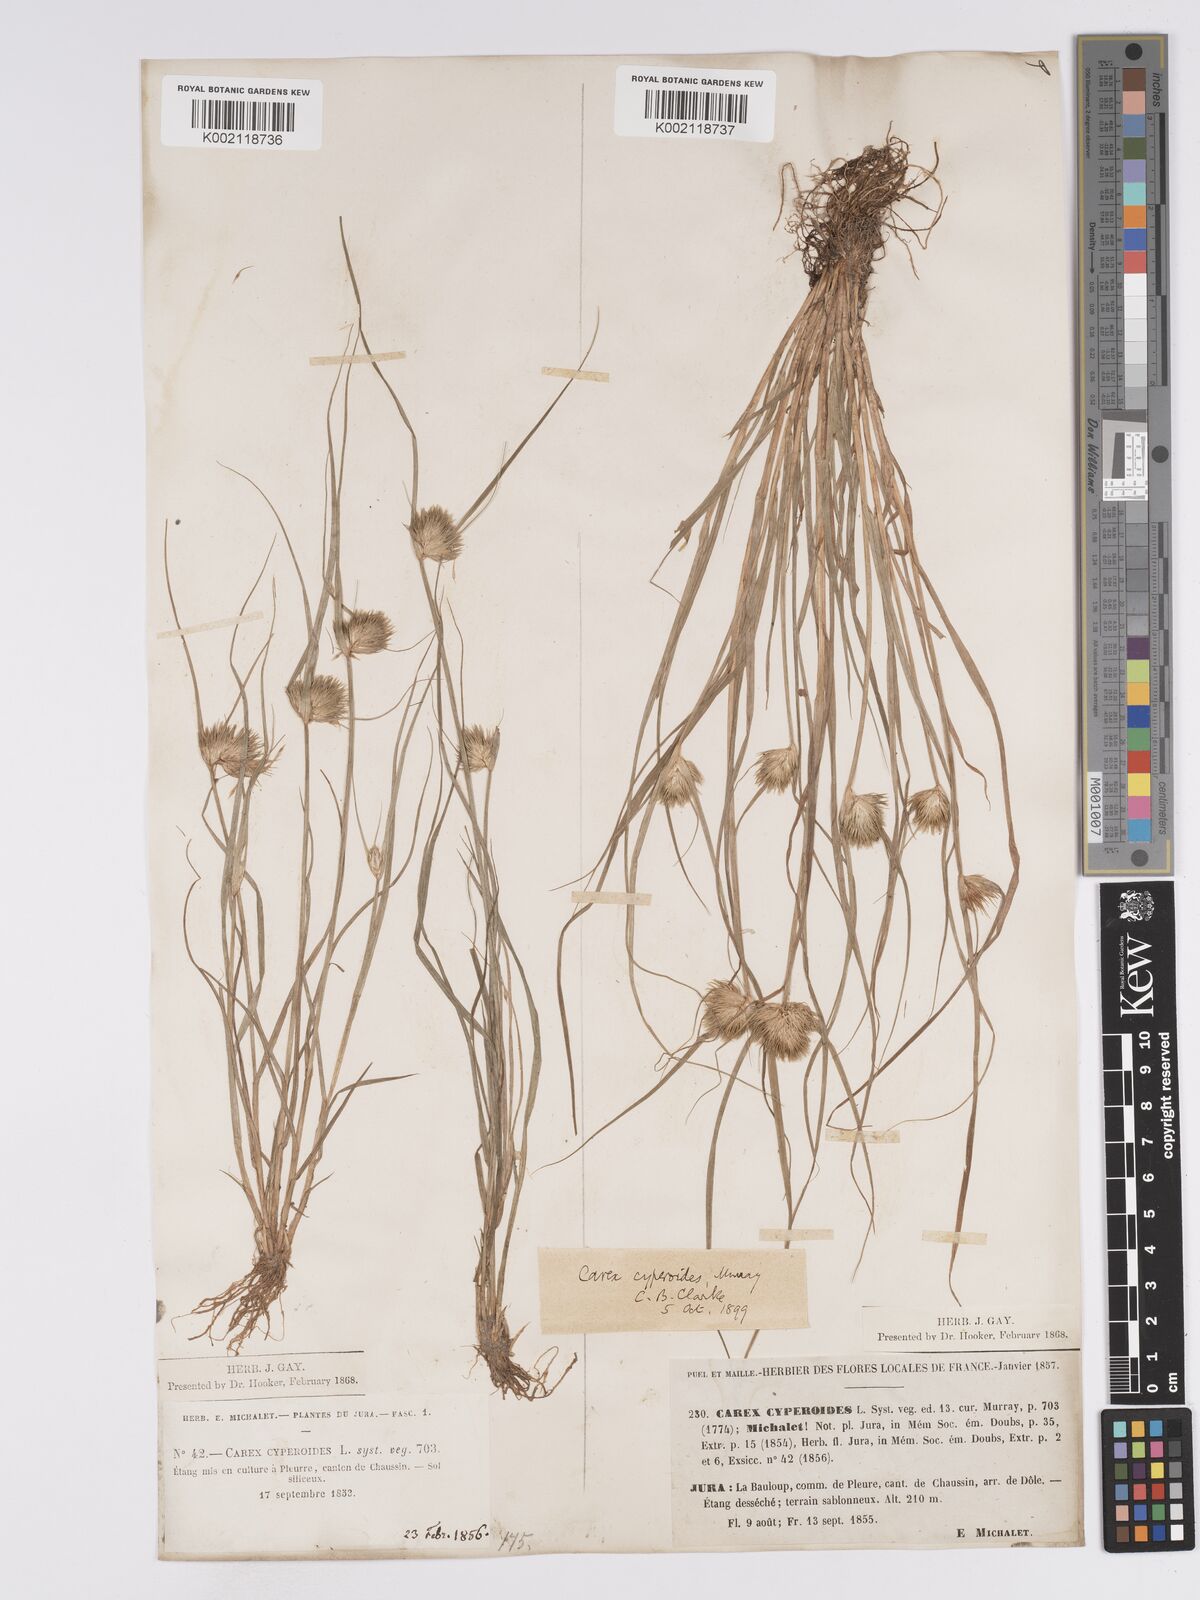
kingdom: Plantae
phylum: Tracheophyta
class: Liliopsida
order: Poales
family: Cyperaceae
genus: Carex
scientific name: Carex bohemica
